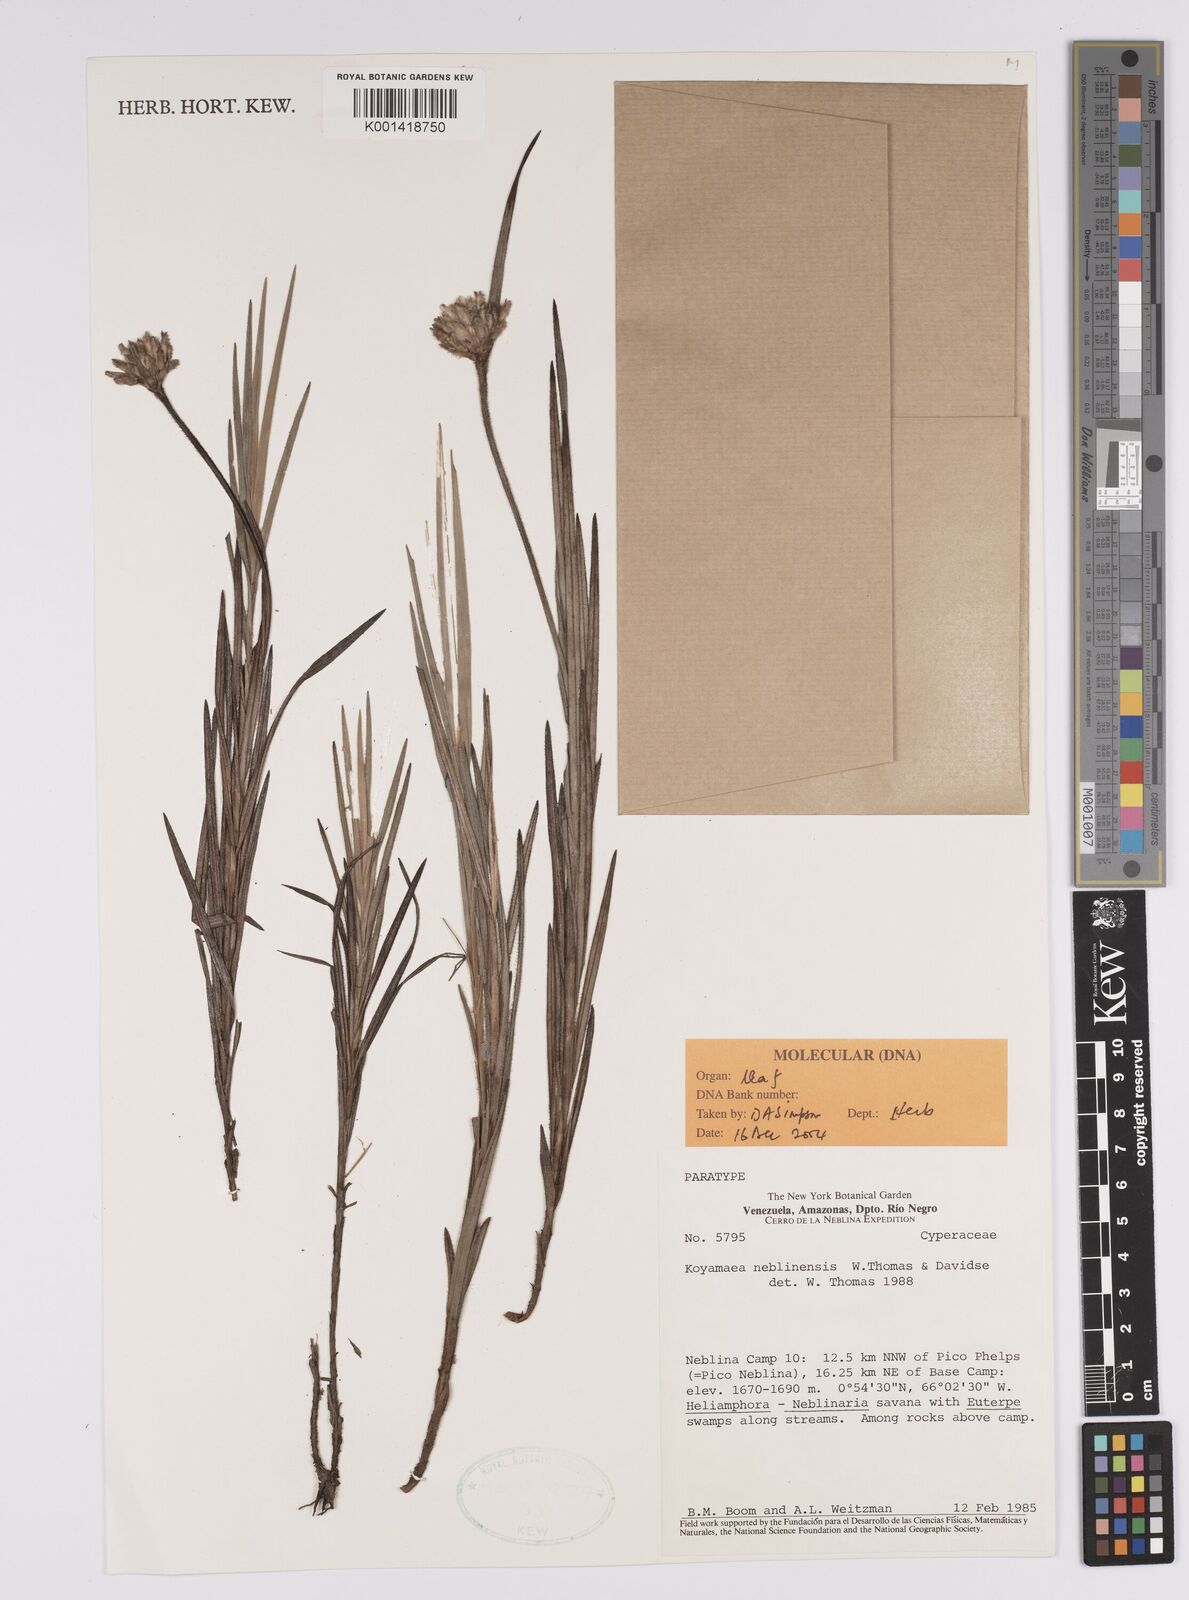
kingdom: Plantae
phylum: Tracheophyta
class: Liliopsida
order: Poales
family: Cyperaceae
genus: Koyamaea
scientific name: Koyamaea neblinensis
